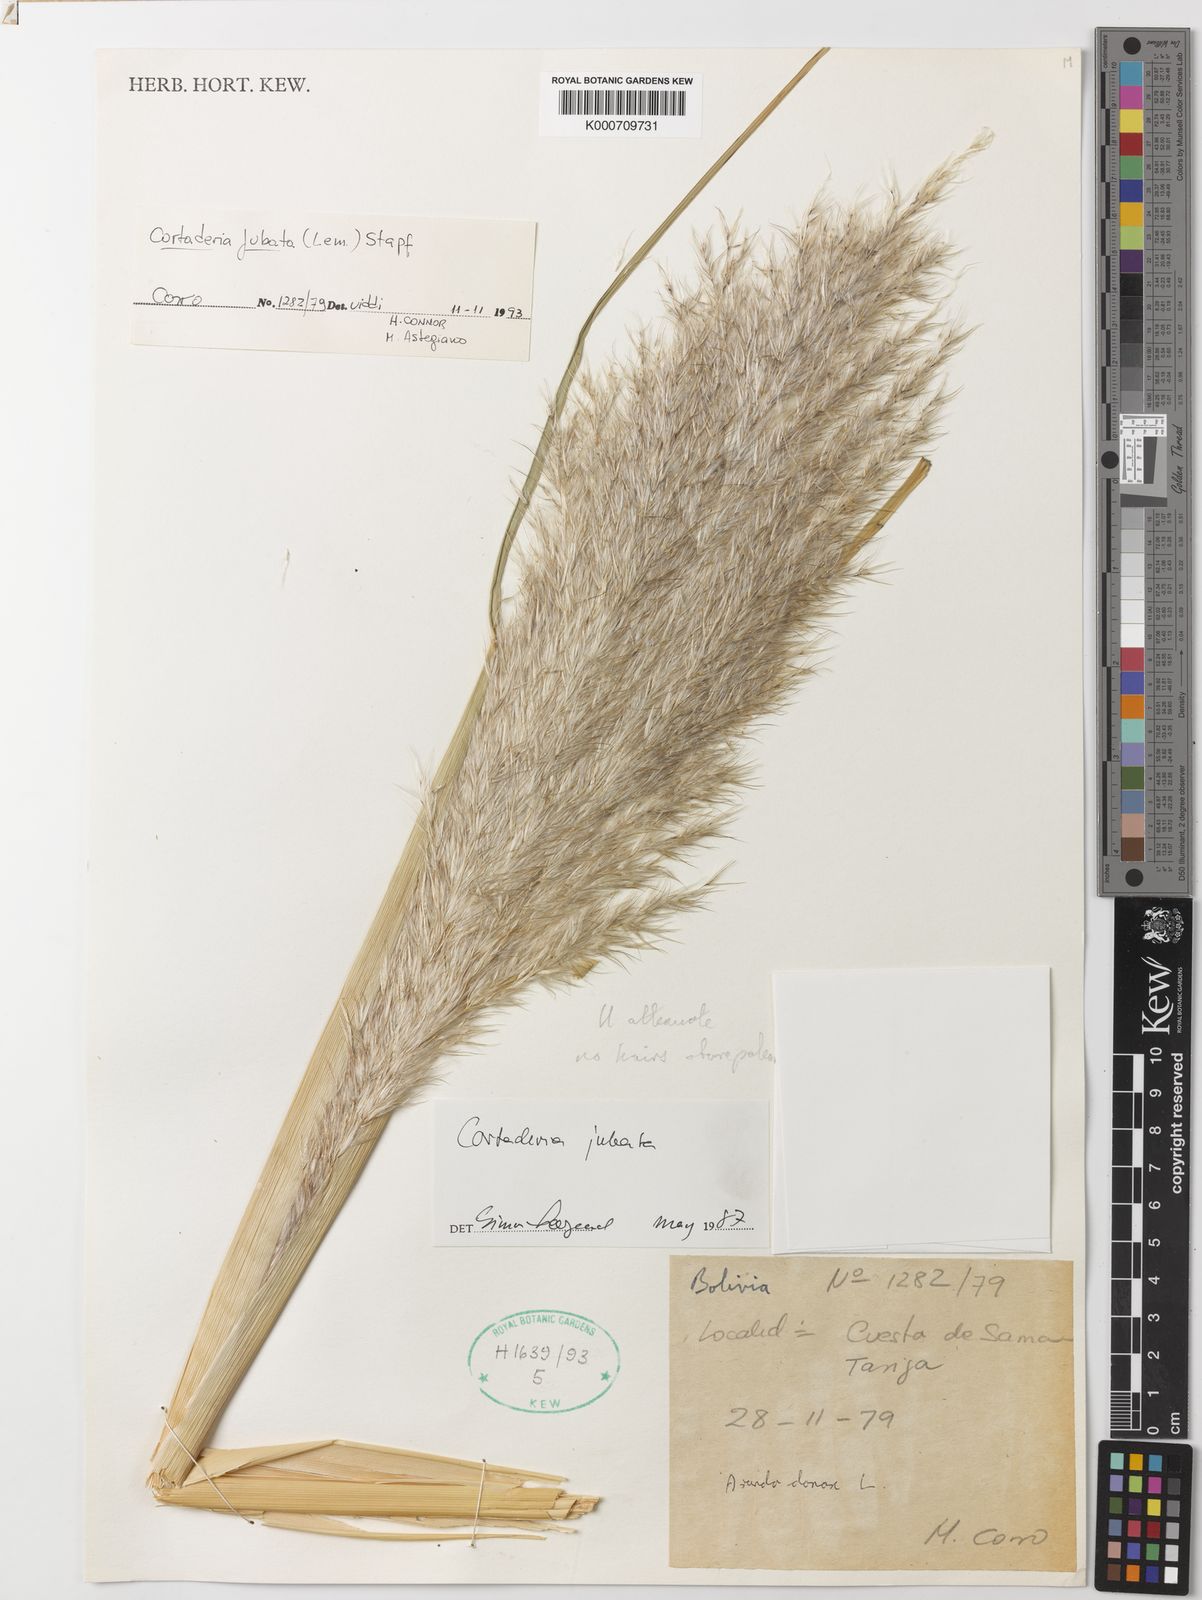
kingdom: Plantae
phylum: Tracheophyta
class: Liliopsida
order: Poales
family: Poaceae
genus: Cortaderia
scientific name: Cortaderia jubata
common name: Purple pampas grass
